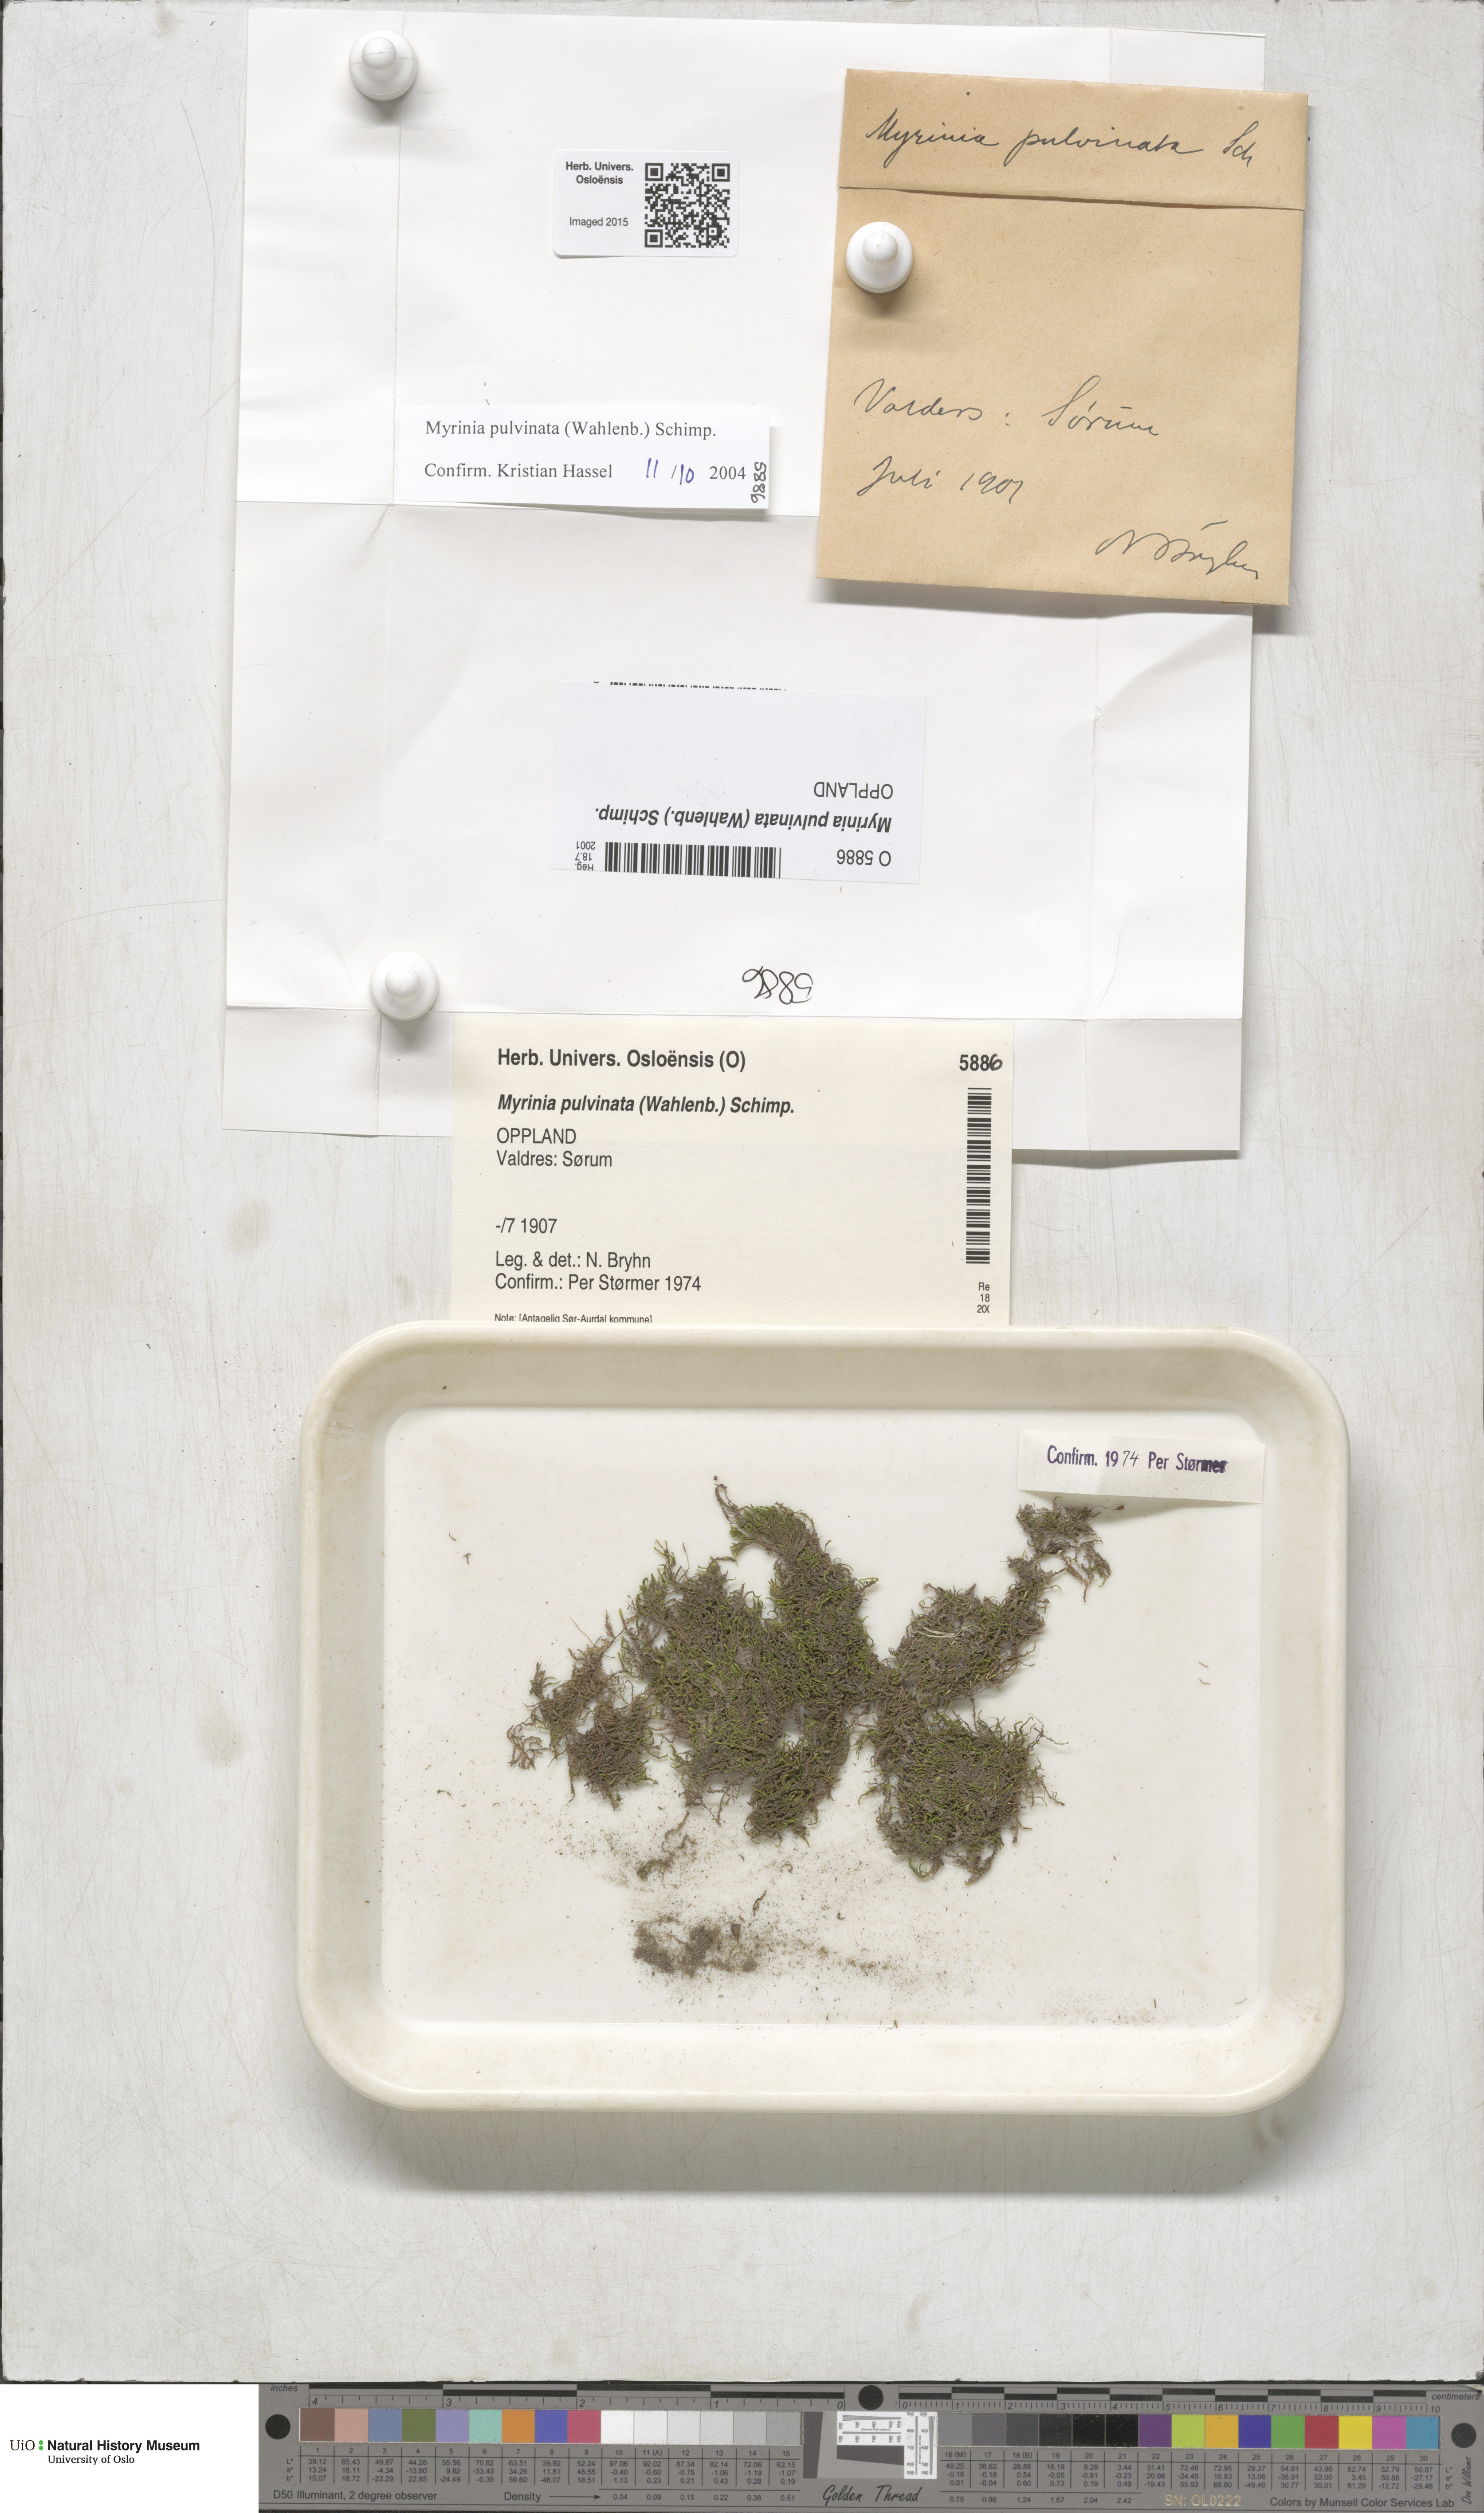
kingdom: Plantae
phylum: Bryophyta
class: Bryopsida
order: Hypnales
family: Myriniaceae
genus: Myrinia
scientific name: Myrinia pulvinata
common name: Flood-moss
